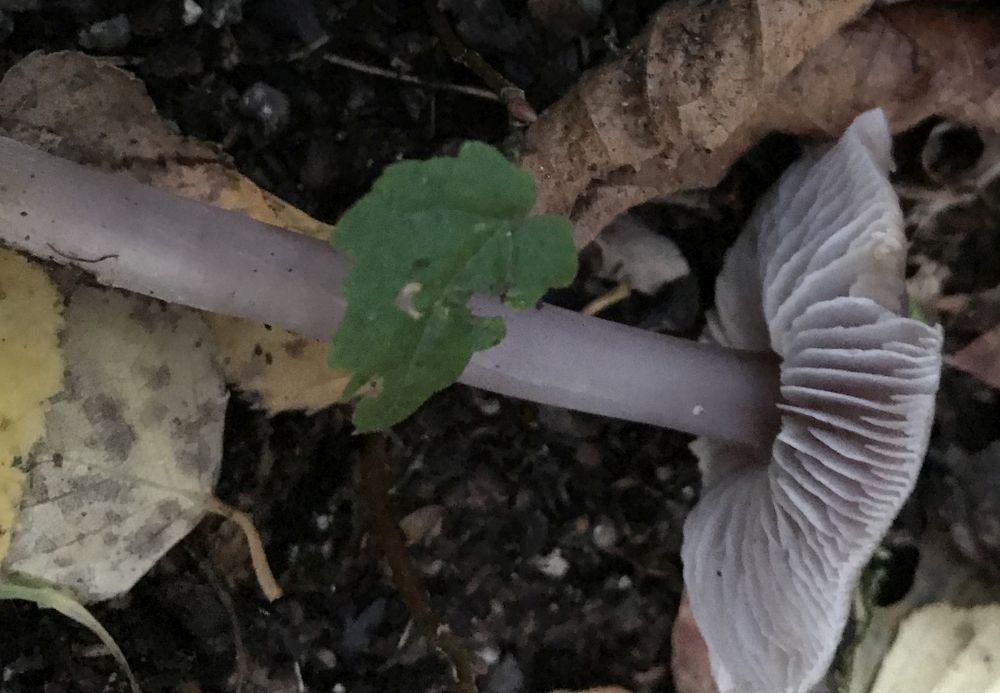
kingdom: Fungi
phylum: Basidiomycota
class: Agaricomycetes
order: Agaricales
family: Mycenaceae
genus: Mycena
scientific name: Mycena
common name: huesvamp
